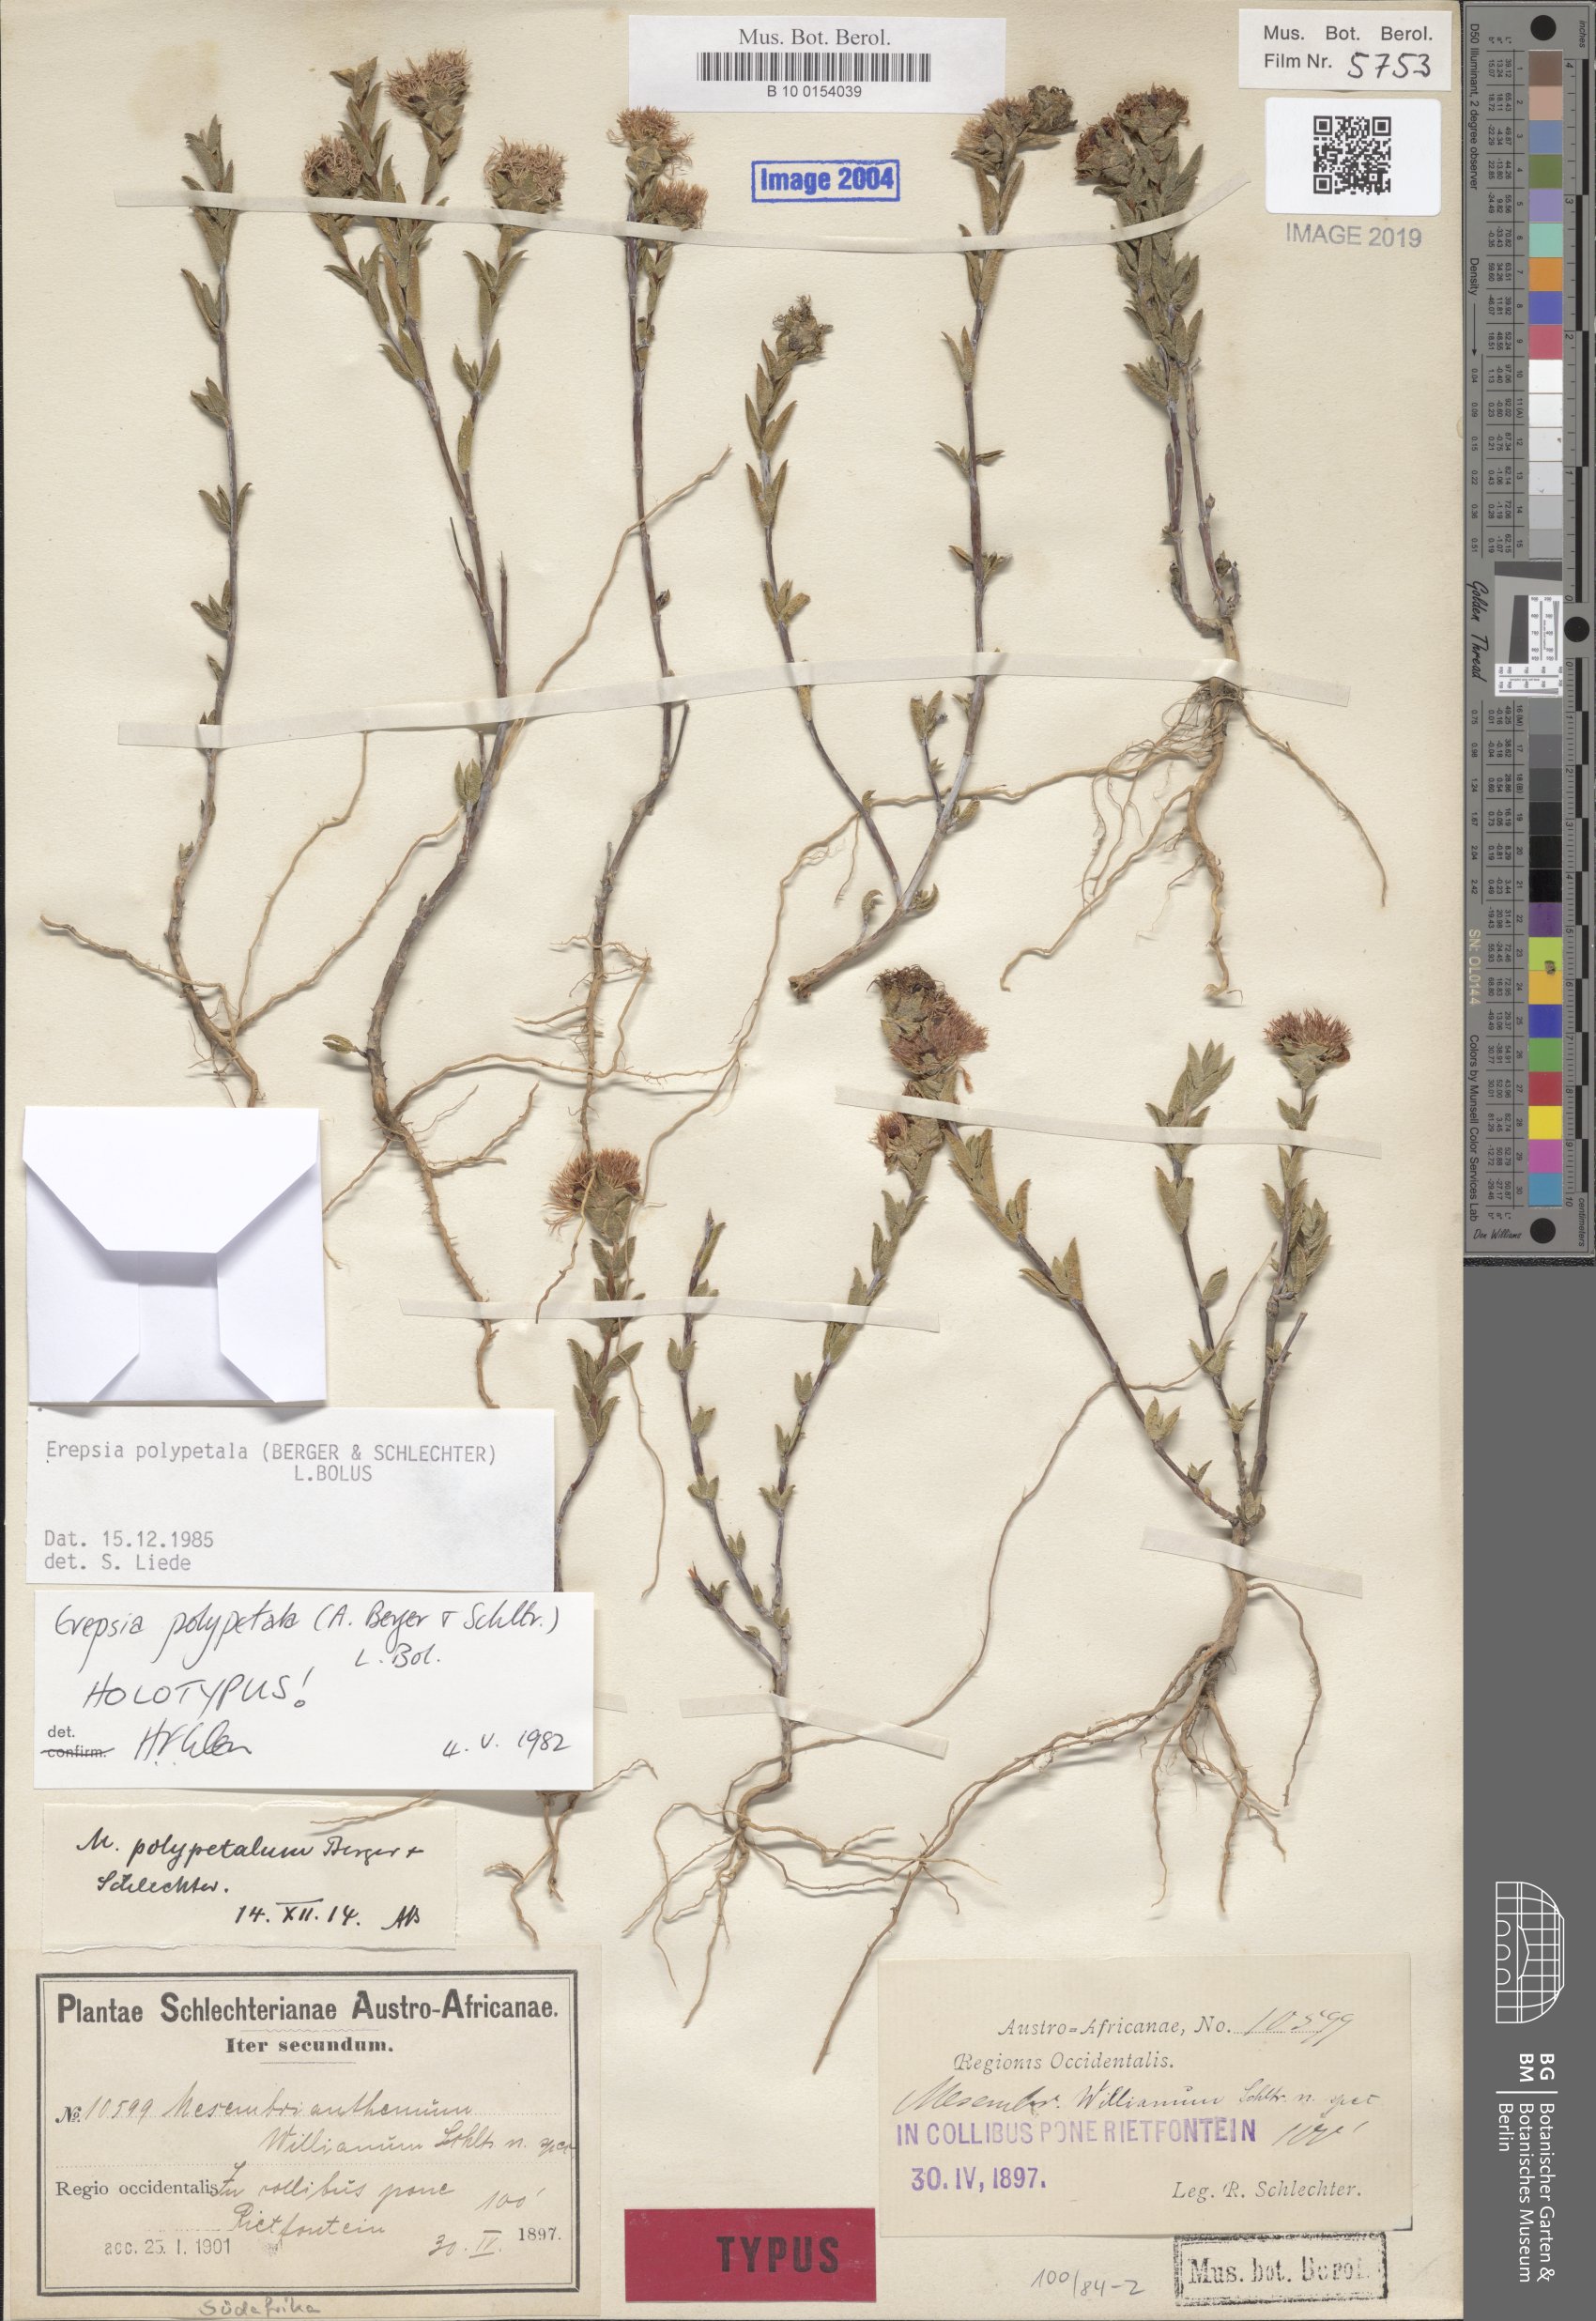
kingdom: Plantae
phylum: Tracheophyta
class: Magnoliopsida
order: Caryophyllales
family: Aizoaceae
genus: Erepsia
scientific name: Erepsia polypetala
